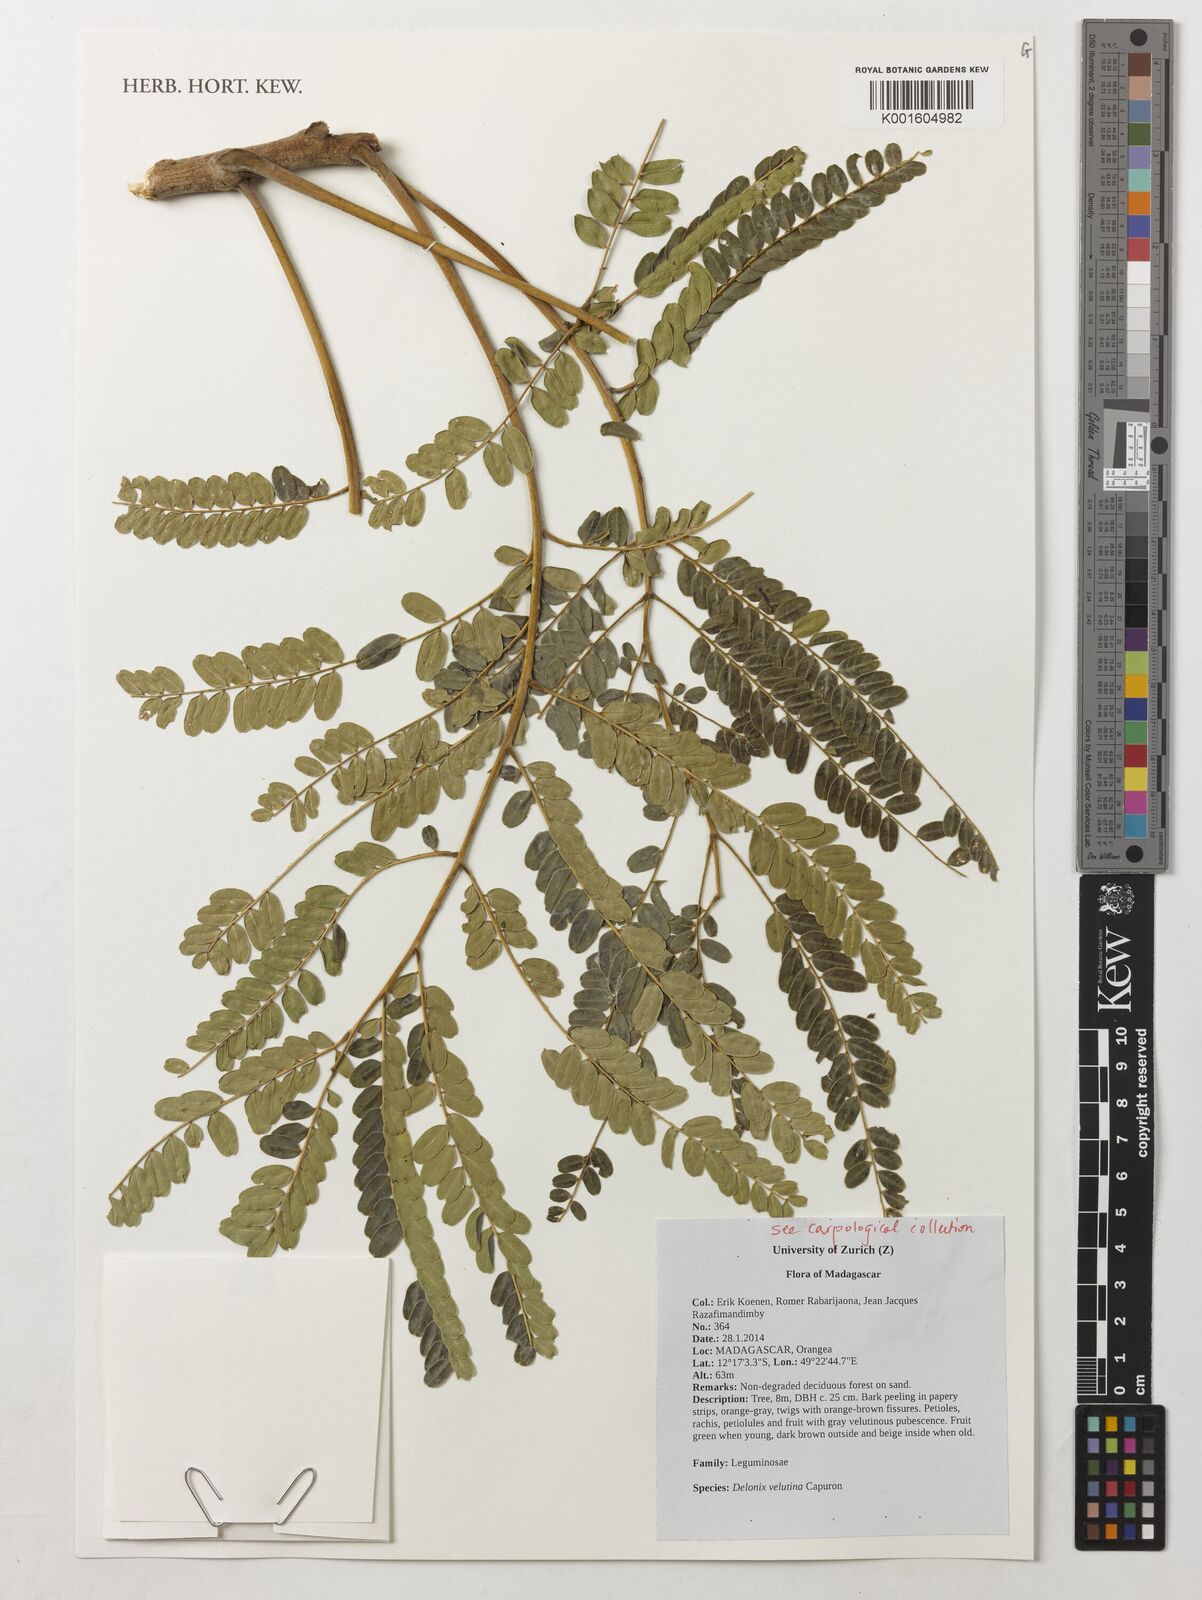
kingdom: Plantae
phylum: Tracheophyta
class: Magnoliopsida
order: Fabales
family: Fabaceae
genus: Delonix
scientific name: Delonix velutina
